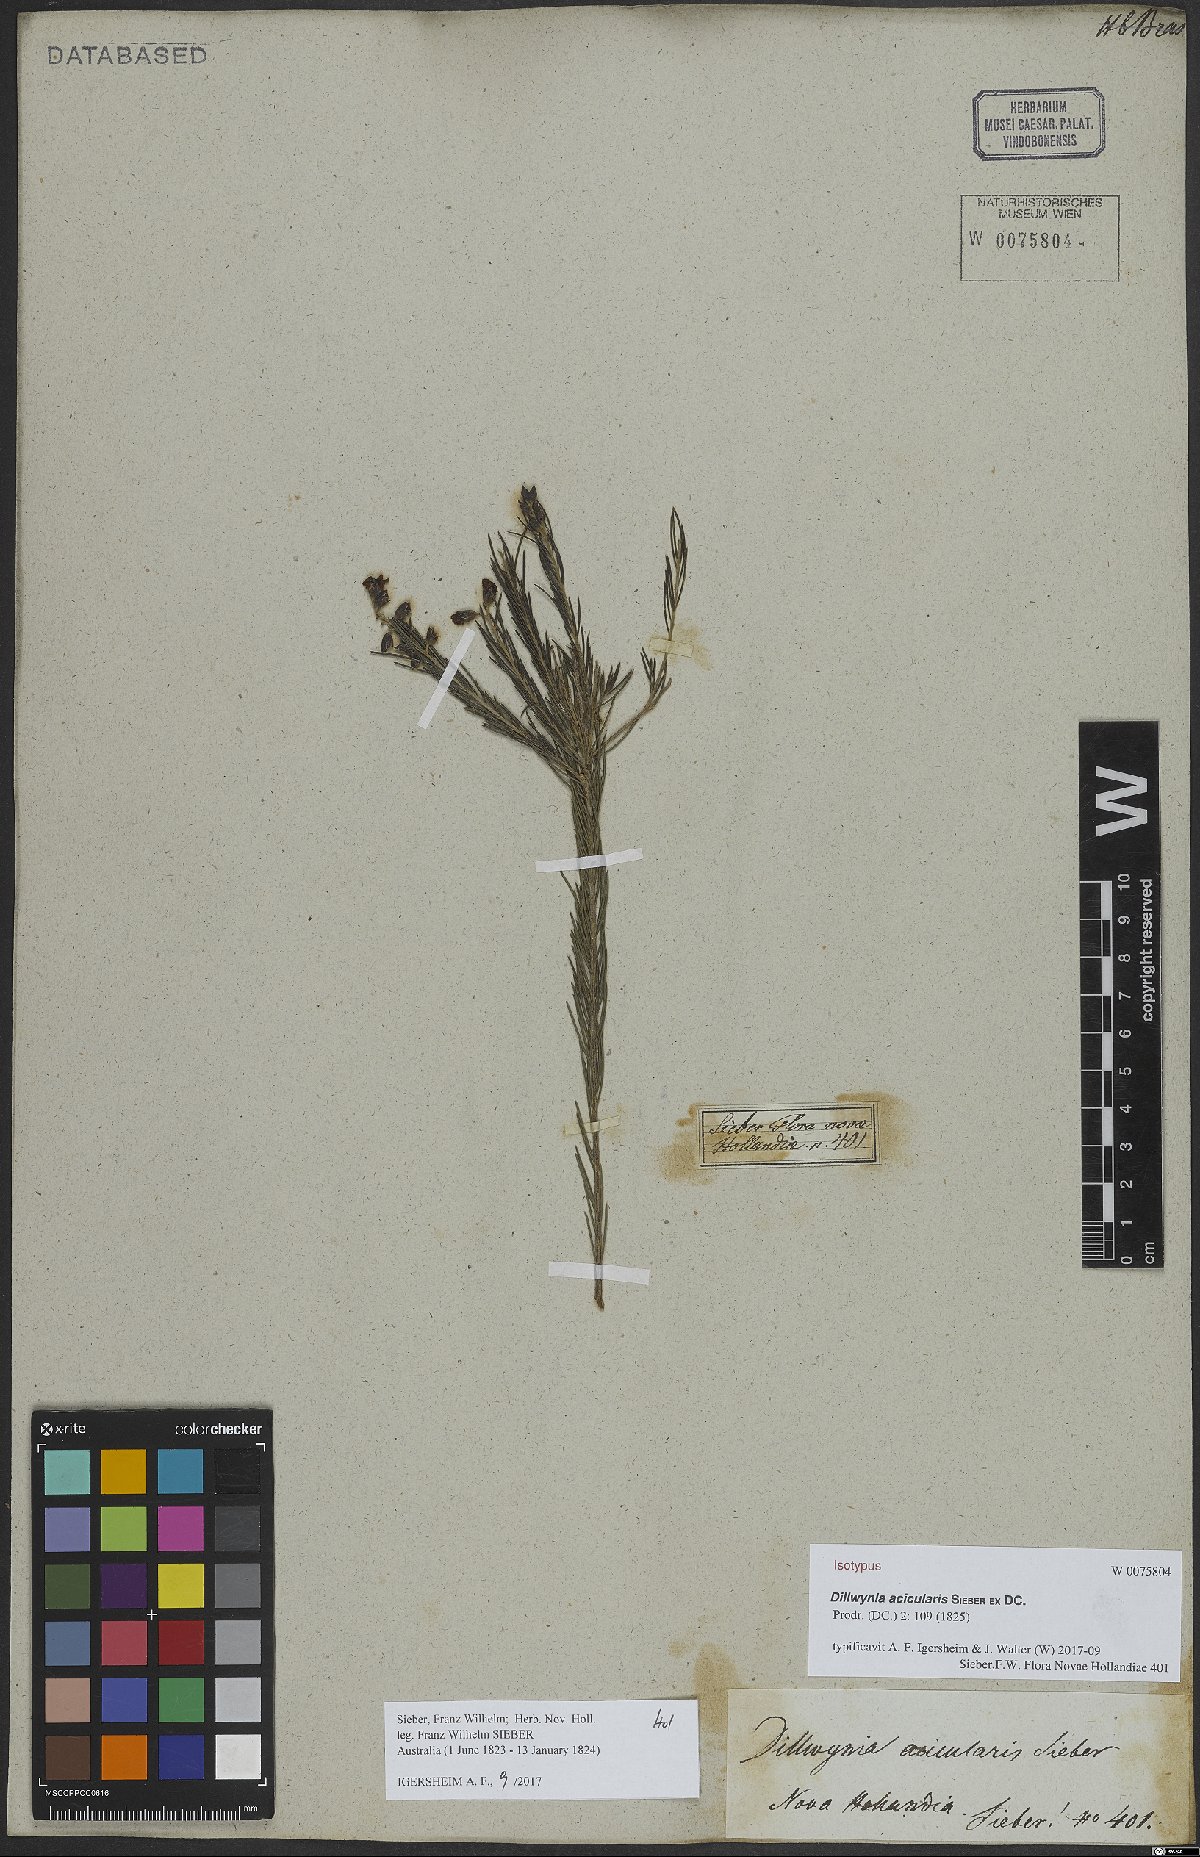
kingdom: Plantae
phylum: Tracheophyta
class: Magnoliopsida
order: Fabales
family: Fabaceae
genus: Dillwynia
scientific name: Dillwynia acicularis
